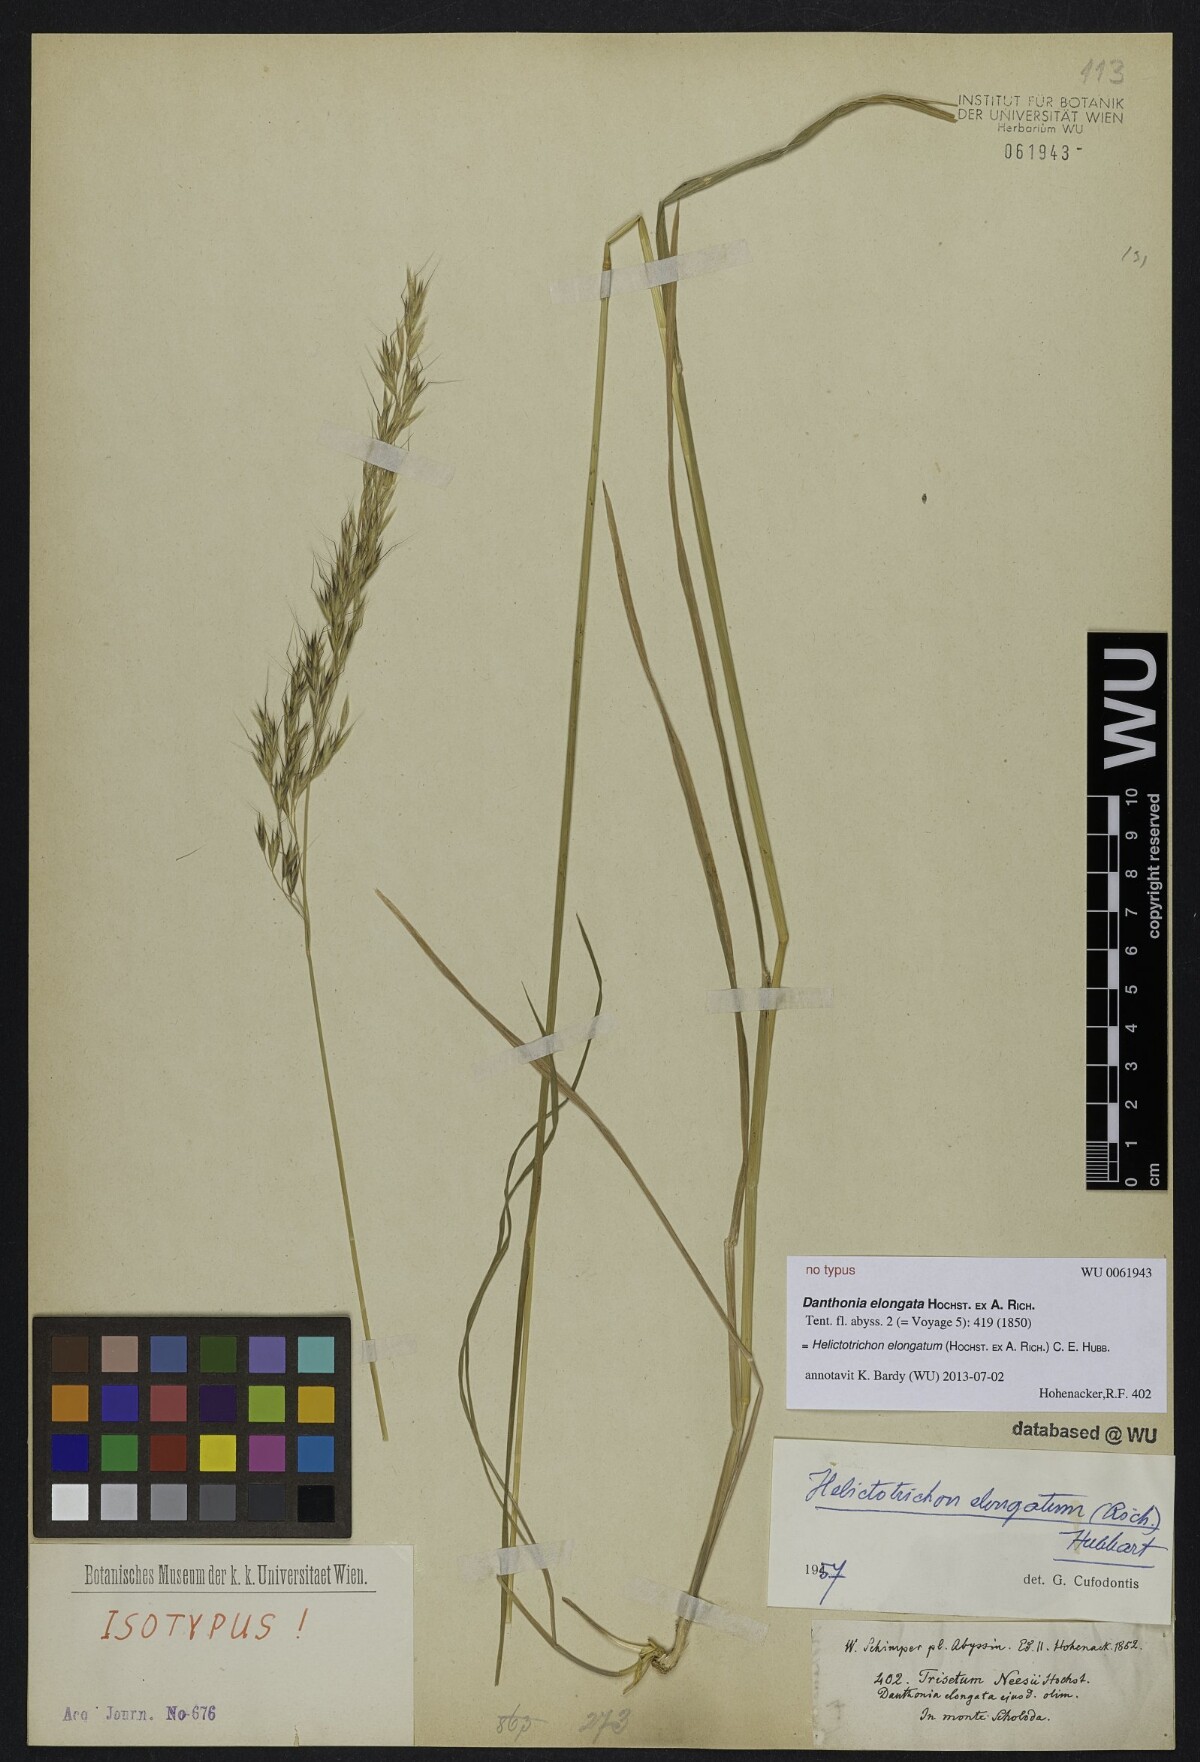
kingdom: Plantae
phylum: Tracheophyta
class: Liliopsida
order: Poales
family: Poaceae
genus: Trisetopsis
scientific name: Trisetopsis elongata
